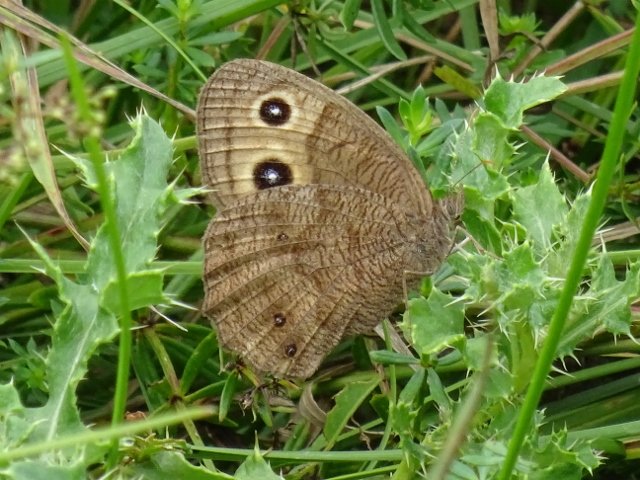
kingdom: Animalia
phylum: Arthropoda
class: Insecta
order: Lepidoptera
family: Nymphalidae
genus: Cercyonis
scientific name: Cercyonis pegala
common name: Common Wood-Nymph
